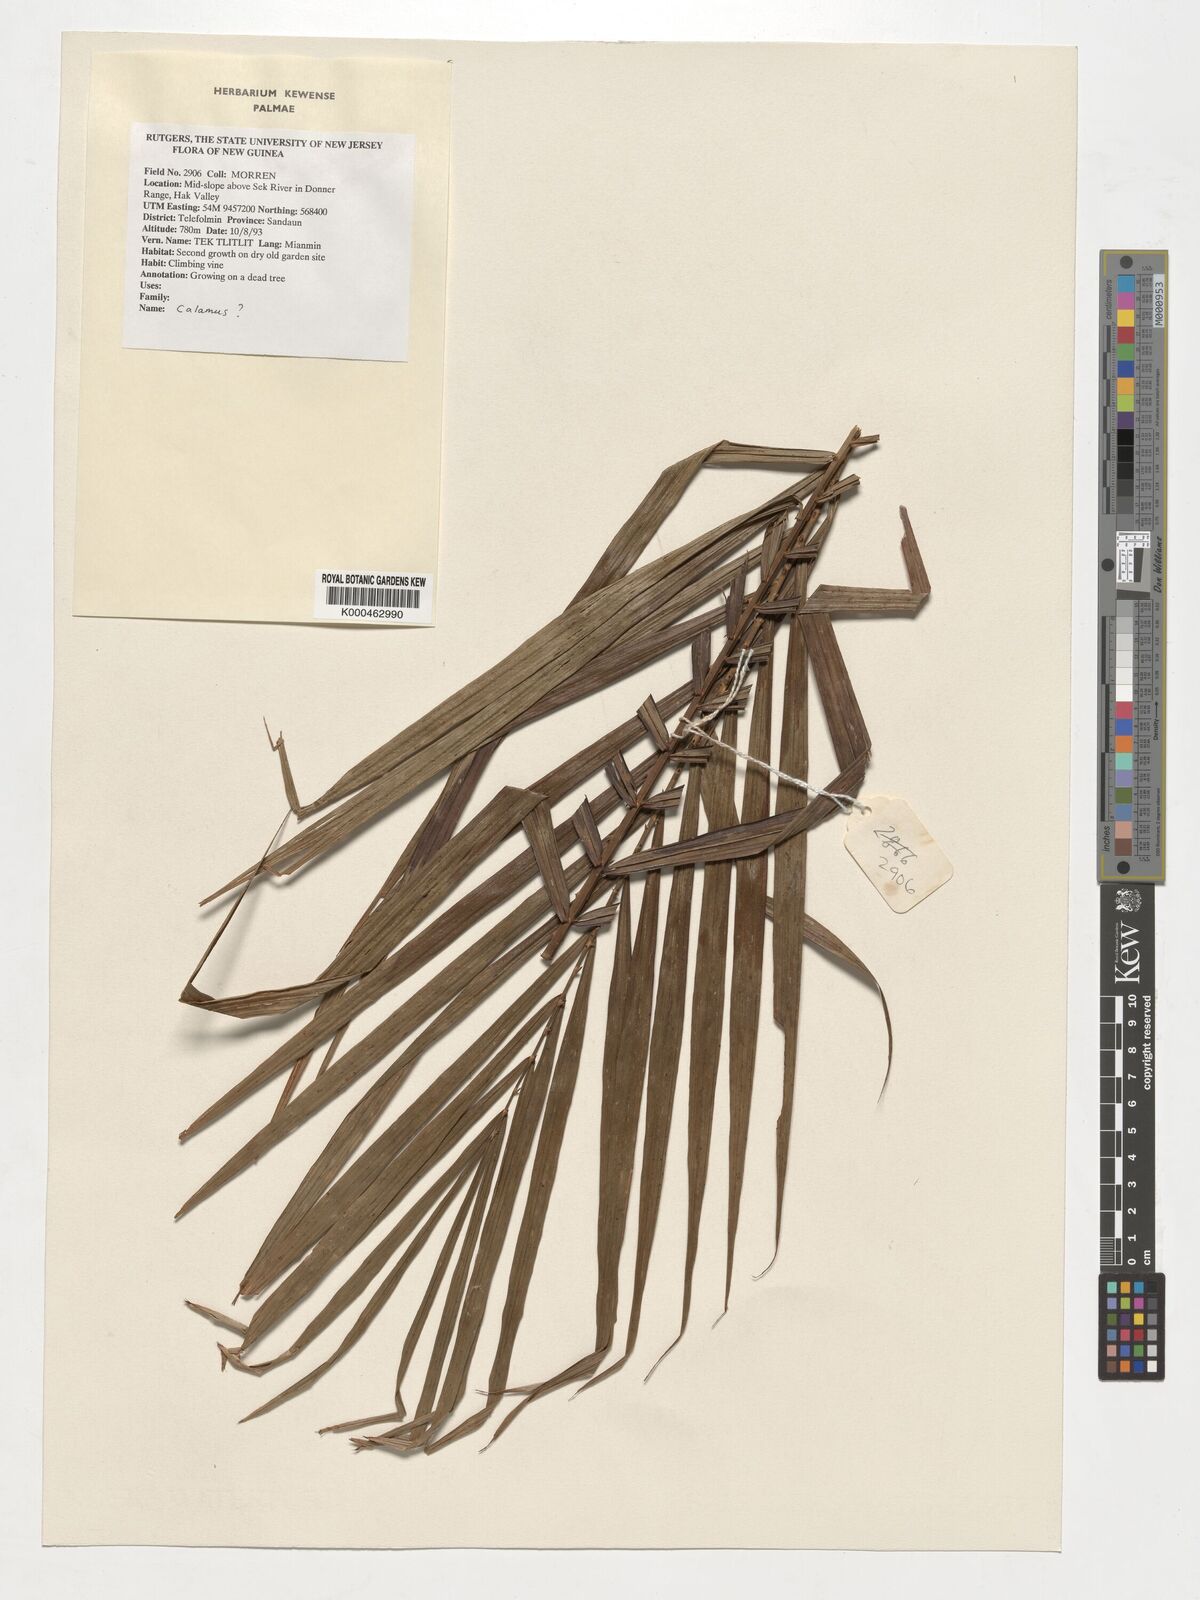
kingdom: Plantae
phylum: Tracheophyta
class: Liliopsida
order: Arecales
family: Arecaceae
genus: Calamus
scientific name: Calamus
